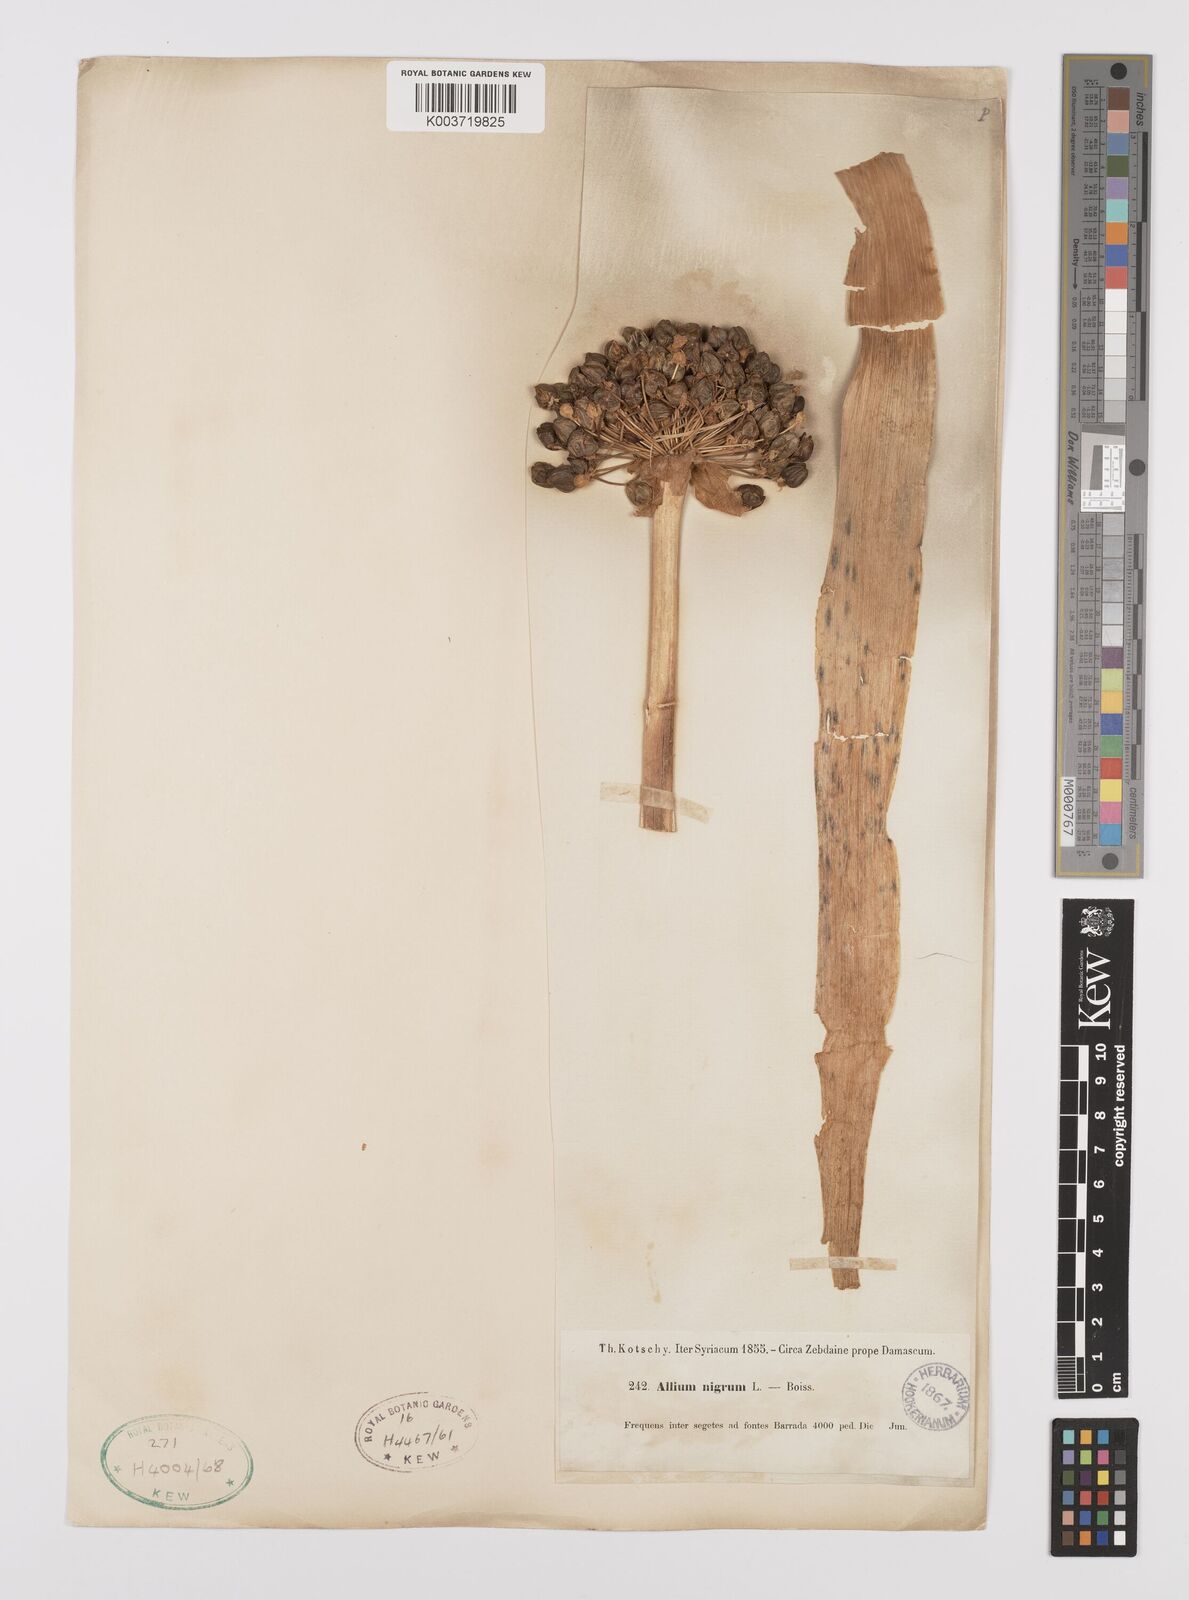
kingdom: Plantae
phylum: Tracheophyta
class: Liliopsida
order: Asparagales
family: Amaryllidaceae
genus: Allium
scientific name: Allium nigrum
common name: Black garlic
